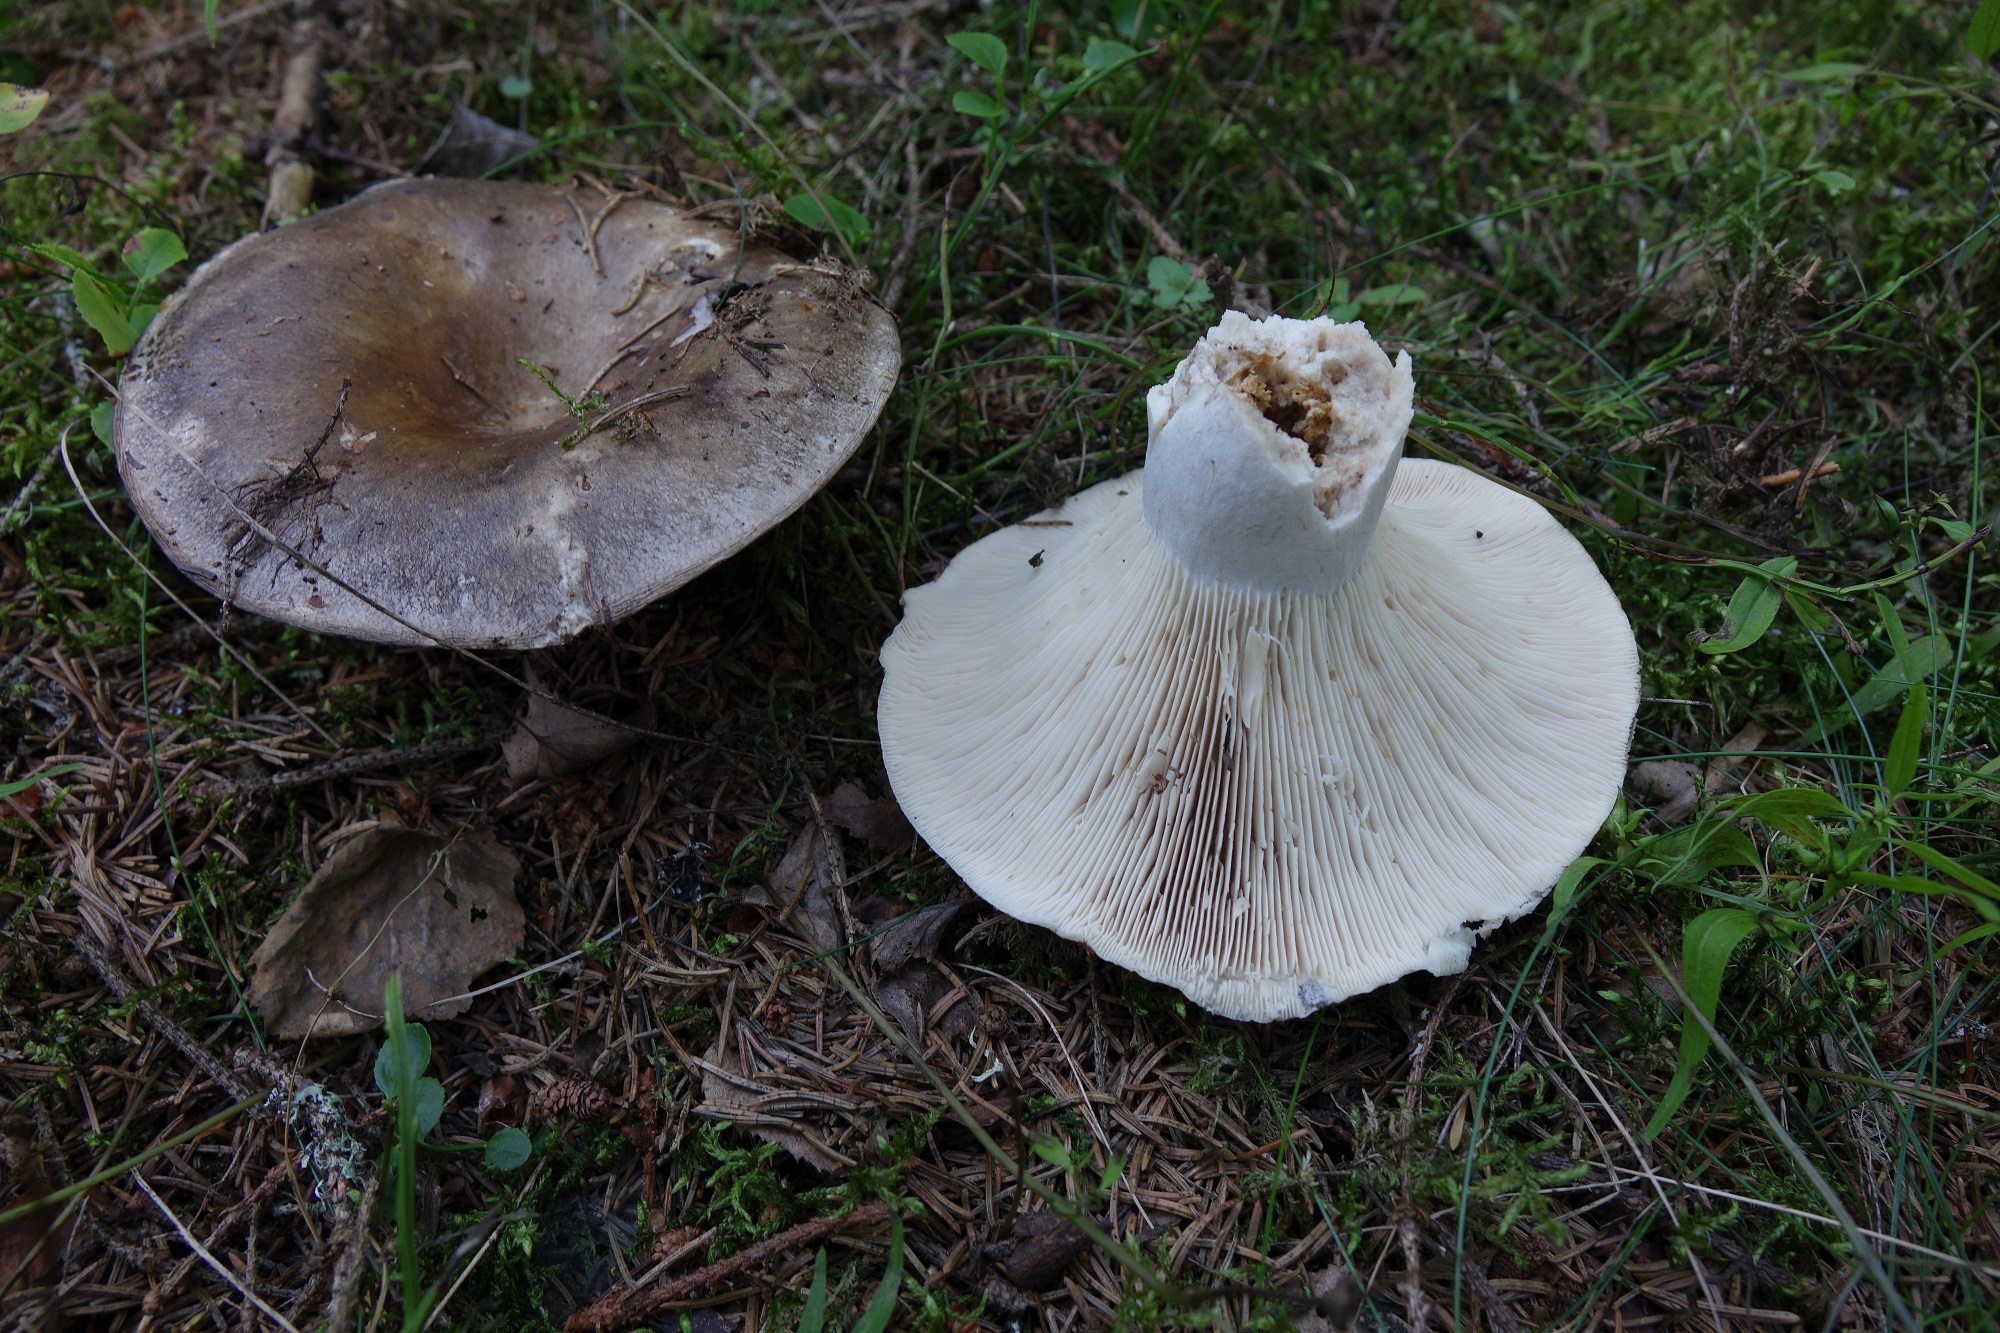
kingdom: Fungi
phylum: Basidiomycota
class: Agaricomycetes
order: Russulales
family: Russulaceae
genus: Russula
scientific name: Russula adusta
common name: Winecork brittlegill
